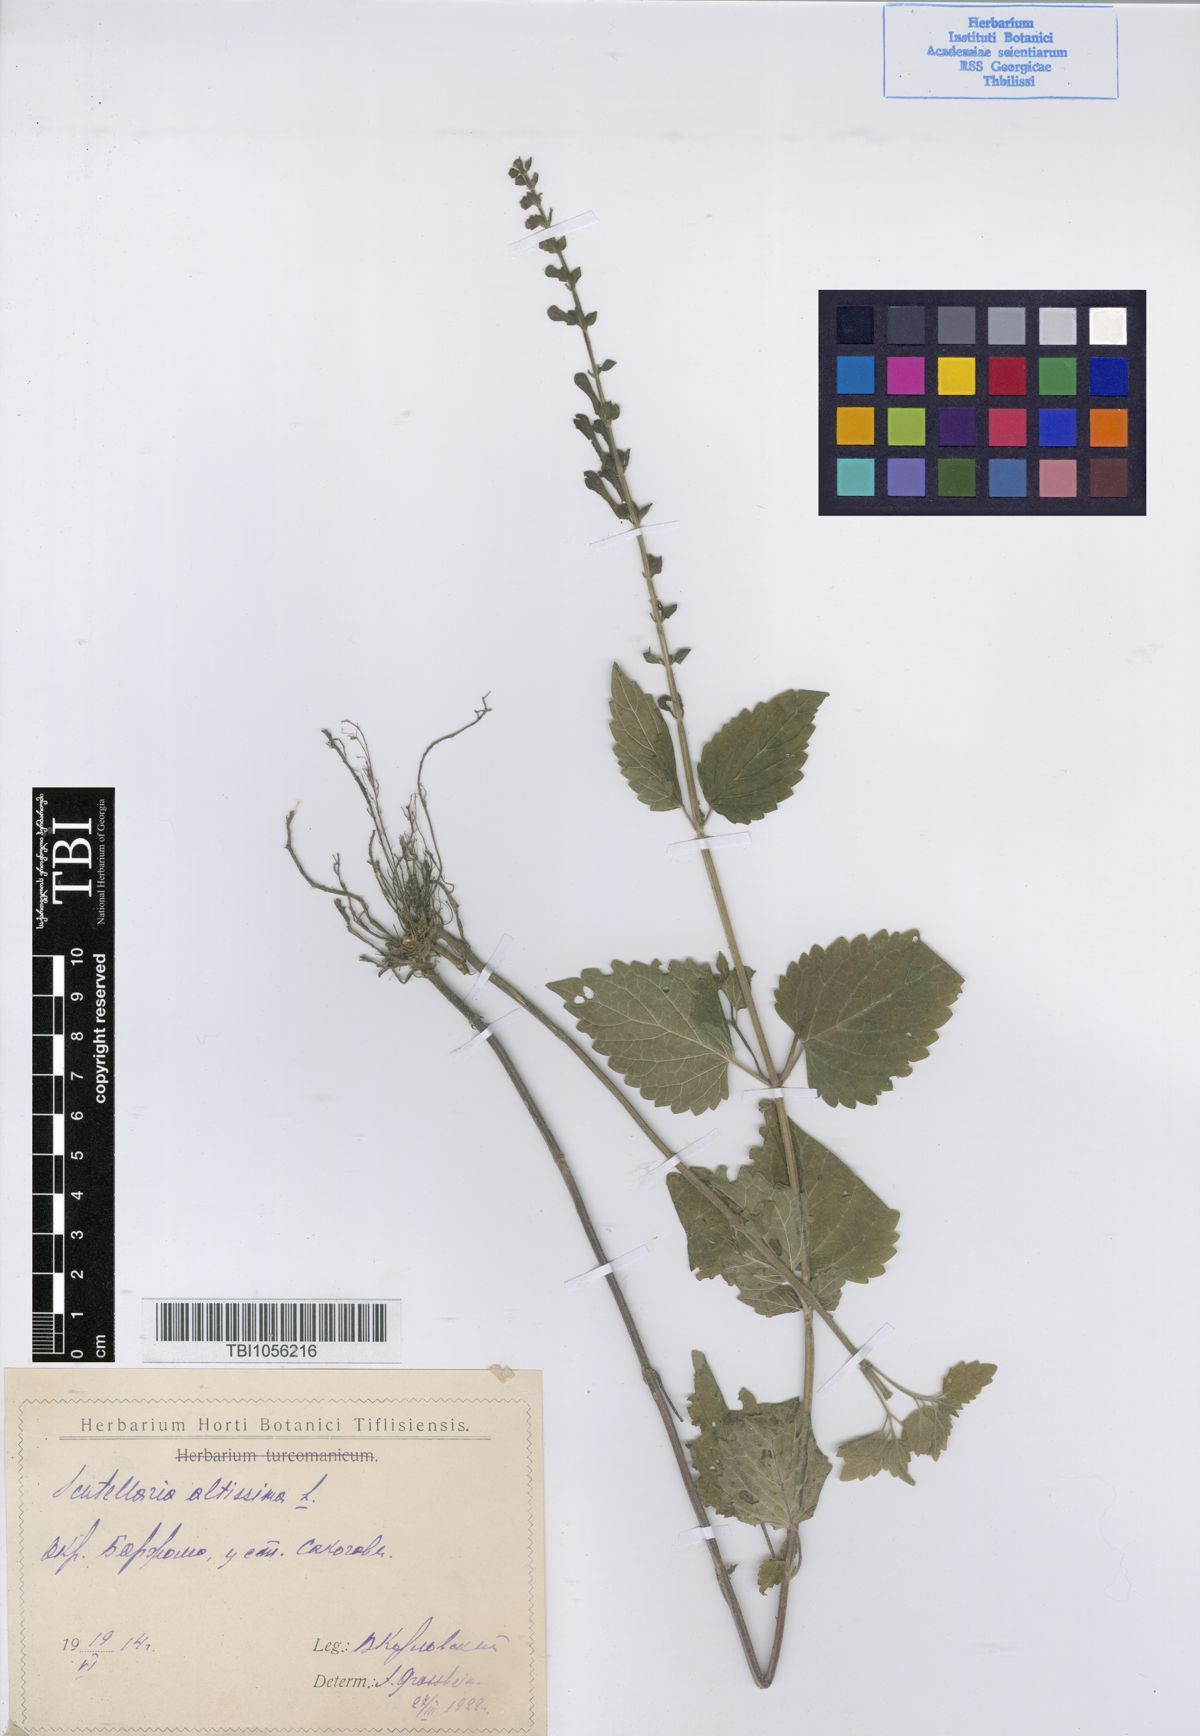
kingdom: Plantae
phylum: Tracheophyta
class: Magnoliopsida
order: Lamiales
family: Lamiaceae
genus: Scutellaria
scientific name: Scutellaria altissima
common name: Somerset skullcap
